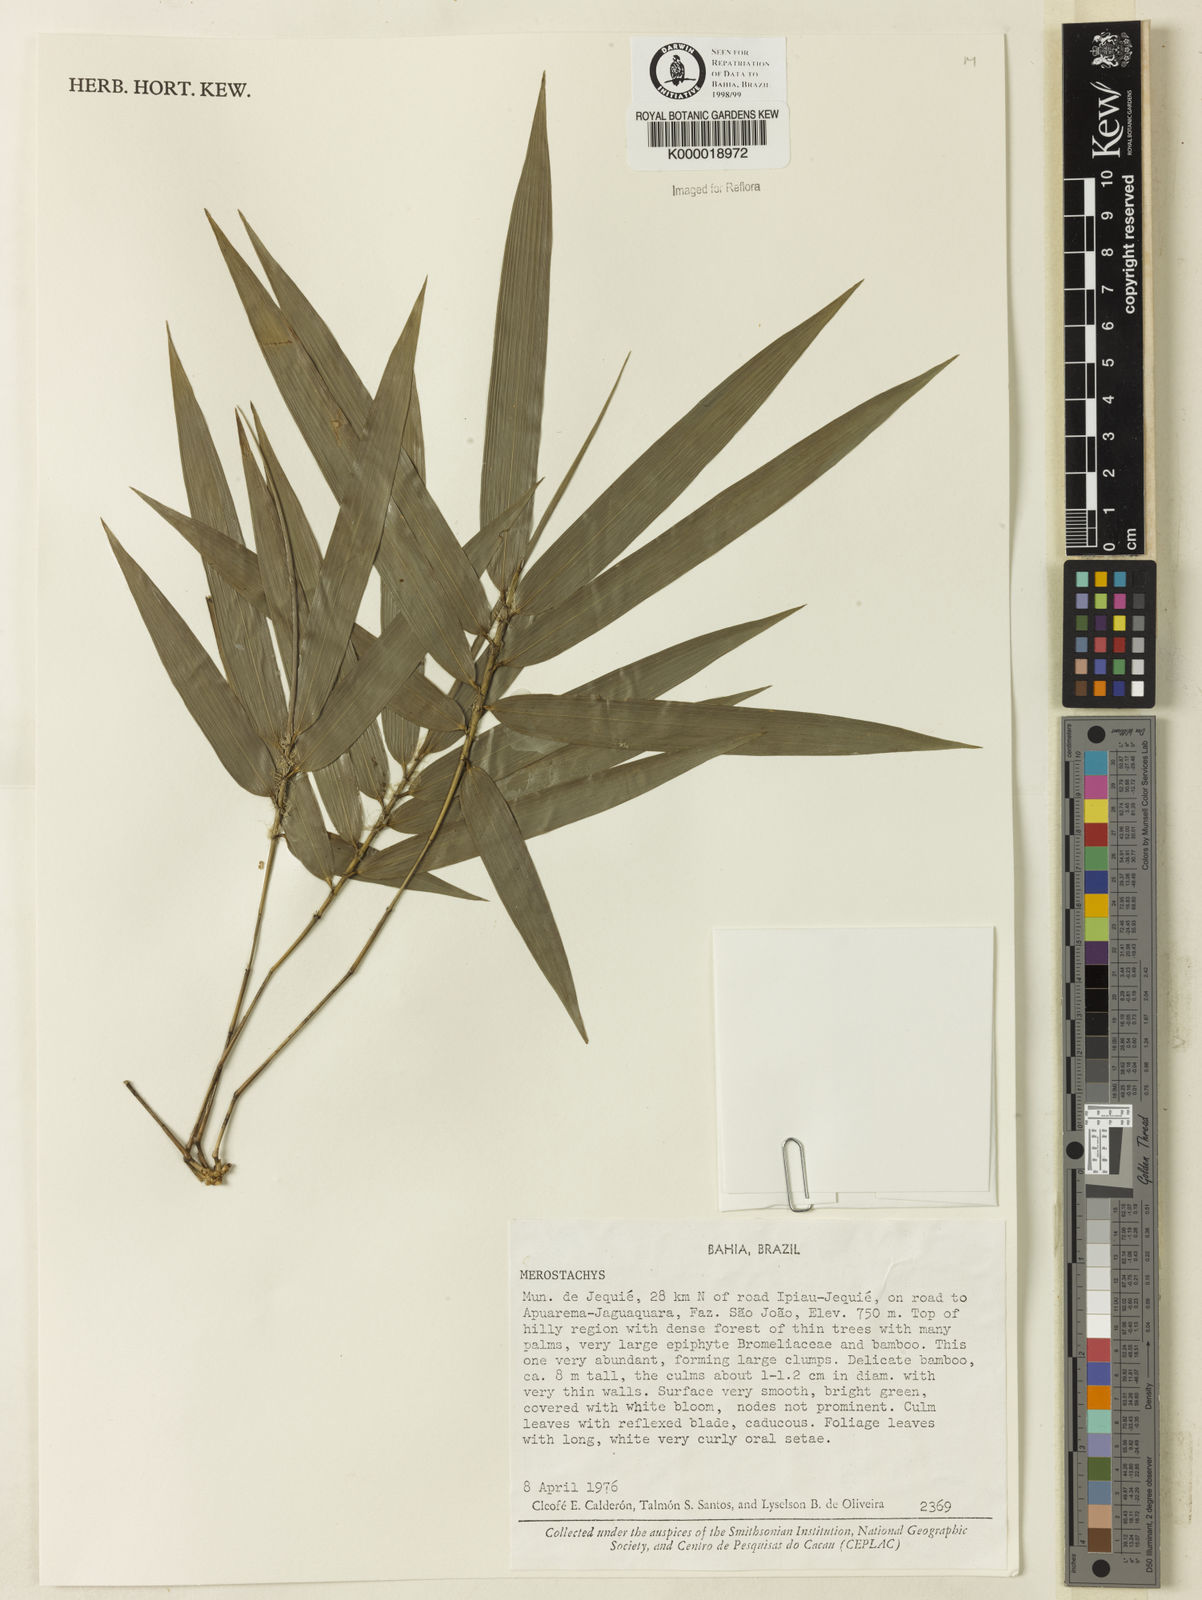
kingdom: Plantae
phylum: Tracheophyta
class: Liliopsida
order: Poales
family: Poaceae
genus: Merostachys
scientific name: Merostachys calderoniana
